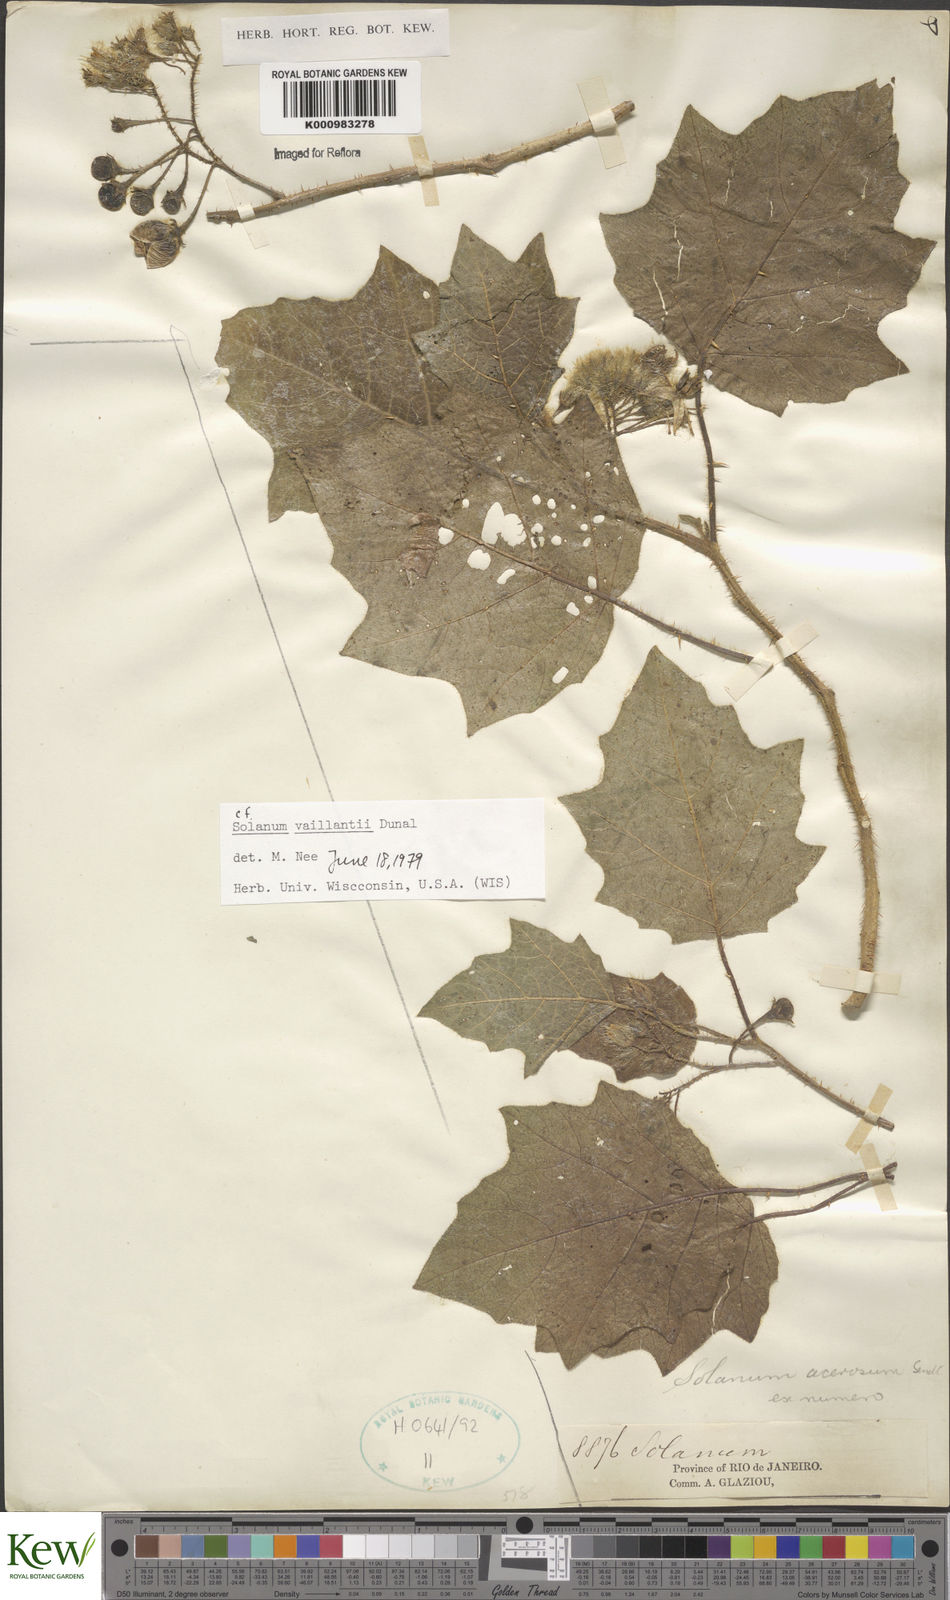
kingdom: Plantae
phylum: Tracheophyta
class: Magnoliopsida
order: Solanales
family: Solanaceae
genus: Solanum
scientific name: Solanum vaillantii
